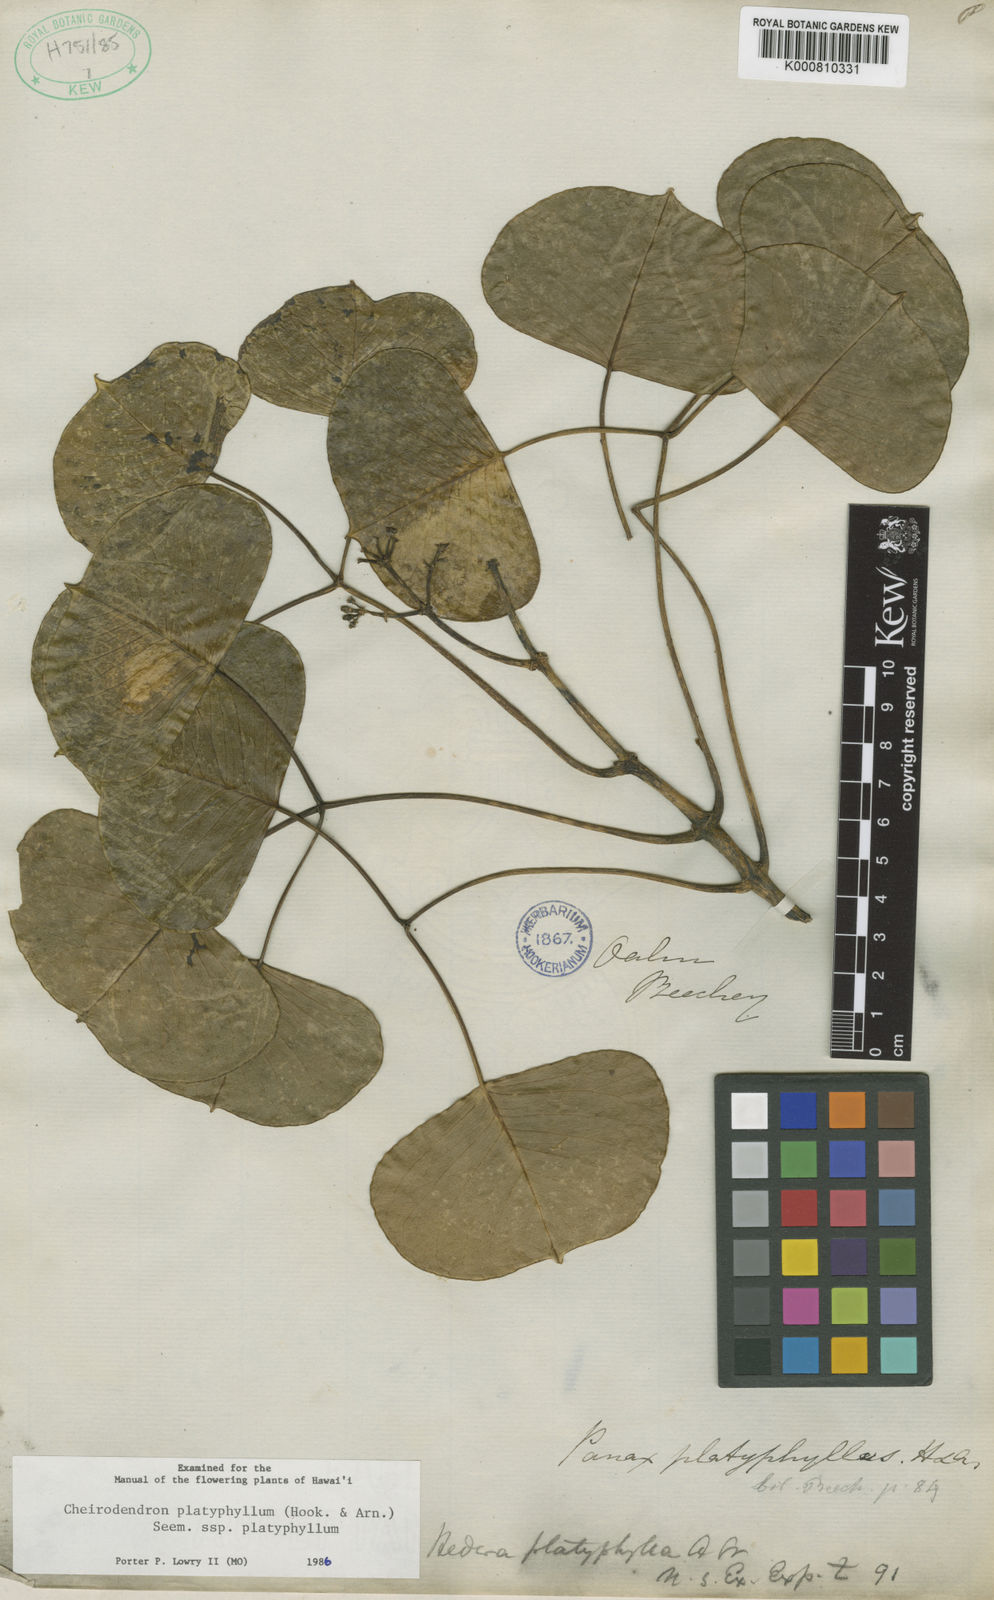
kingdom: Plantae
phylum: Tracheophyta
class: Magnoliopsida
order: Apiales
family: Araliaceae
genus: Cheirodendron
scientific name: Cheirodendron platyphyllum
